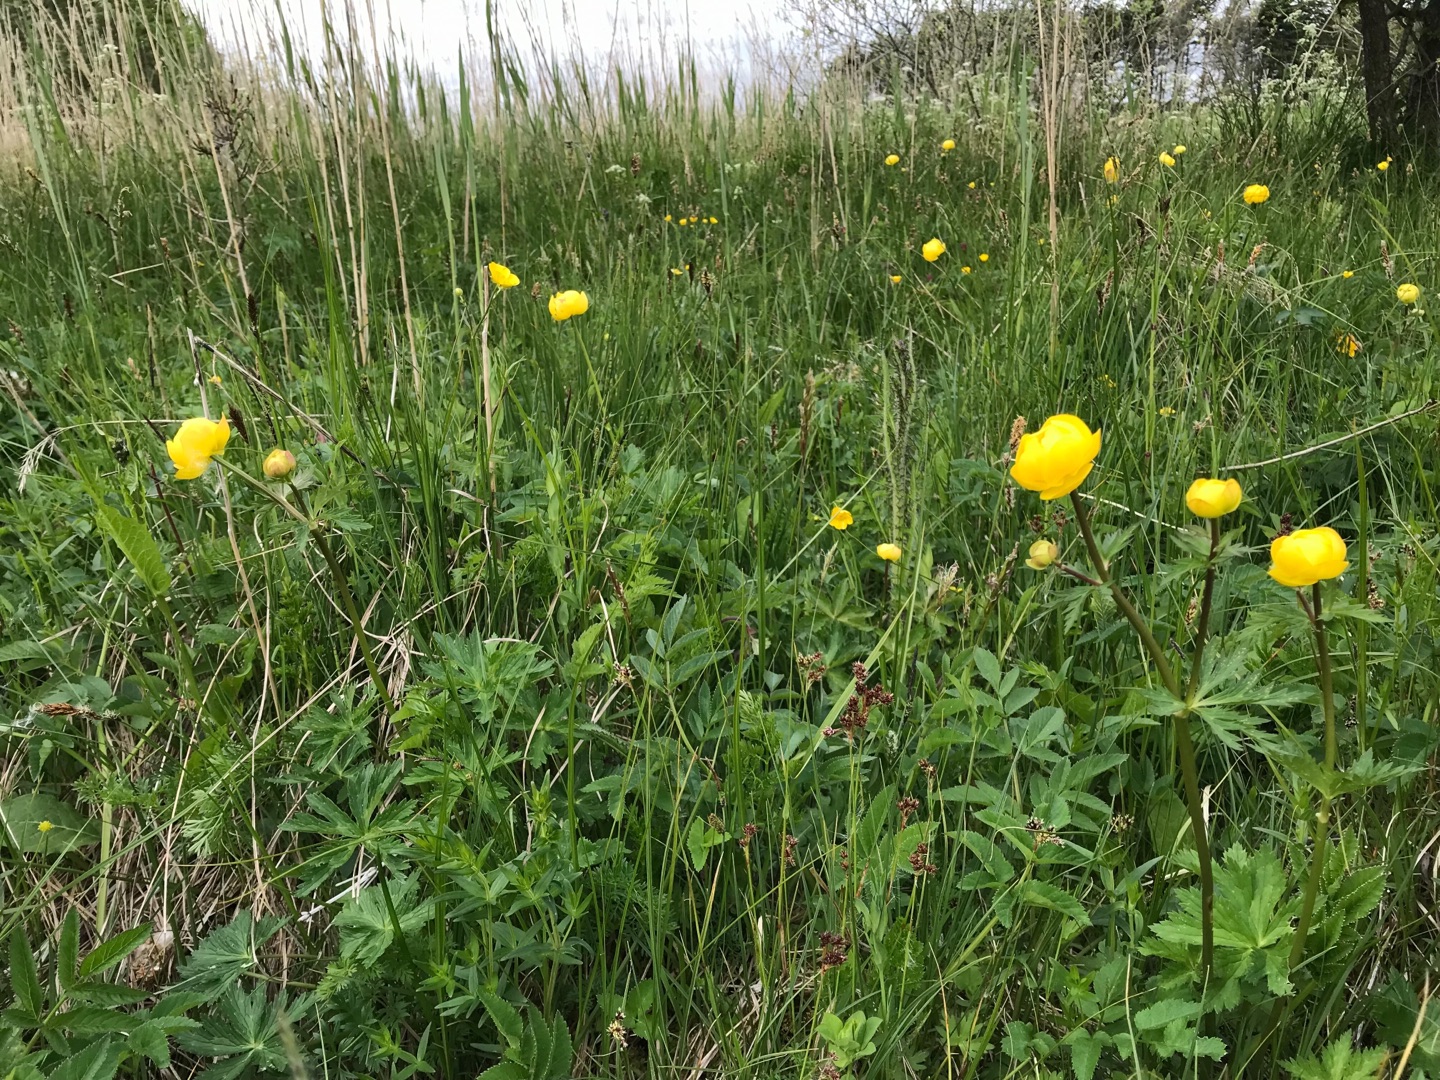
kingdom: Plantae
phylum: Tracheophyta
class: Magnoliopsida
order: Ranunculales
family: Ranunculaceae
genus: Trollius
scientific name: Trollius europaeus
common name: Engblomme
